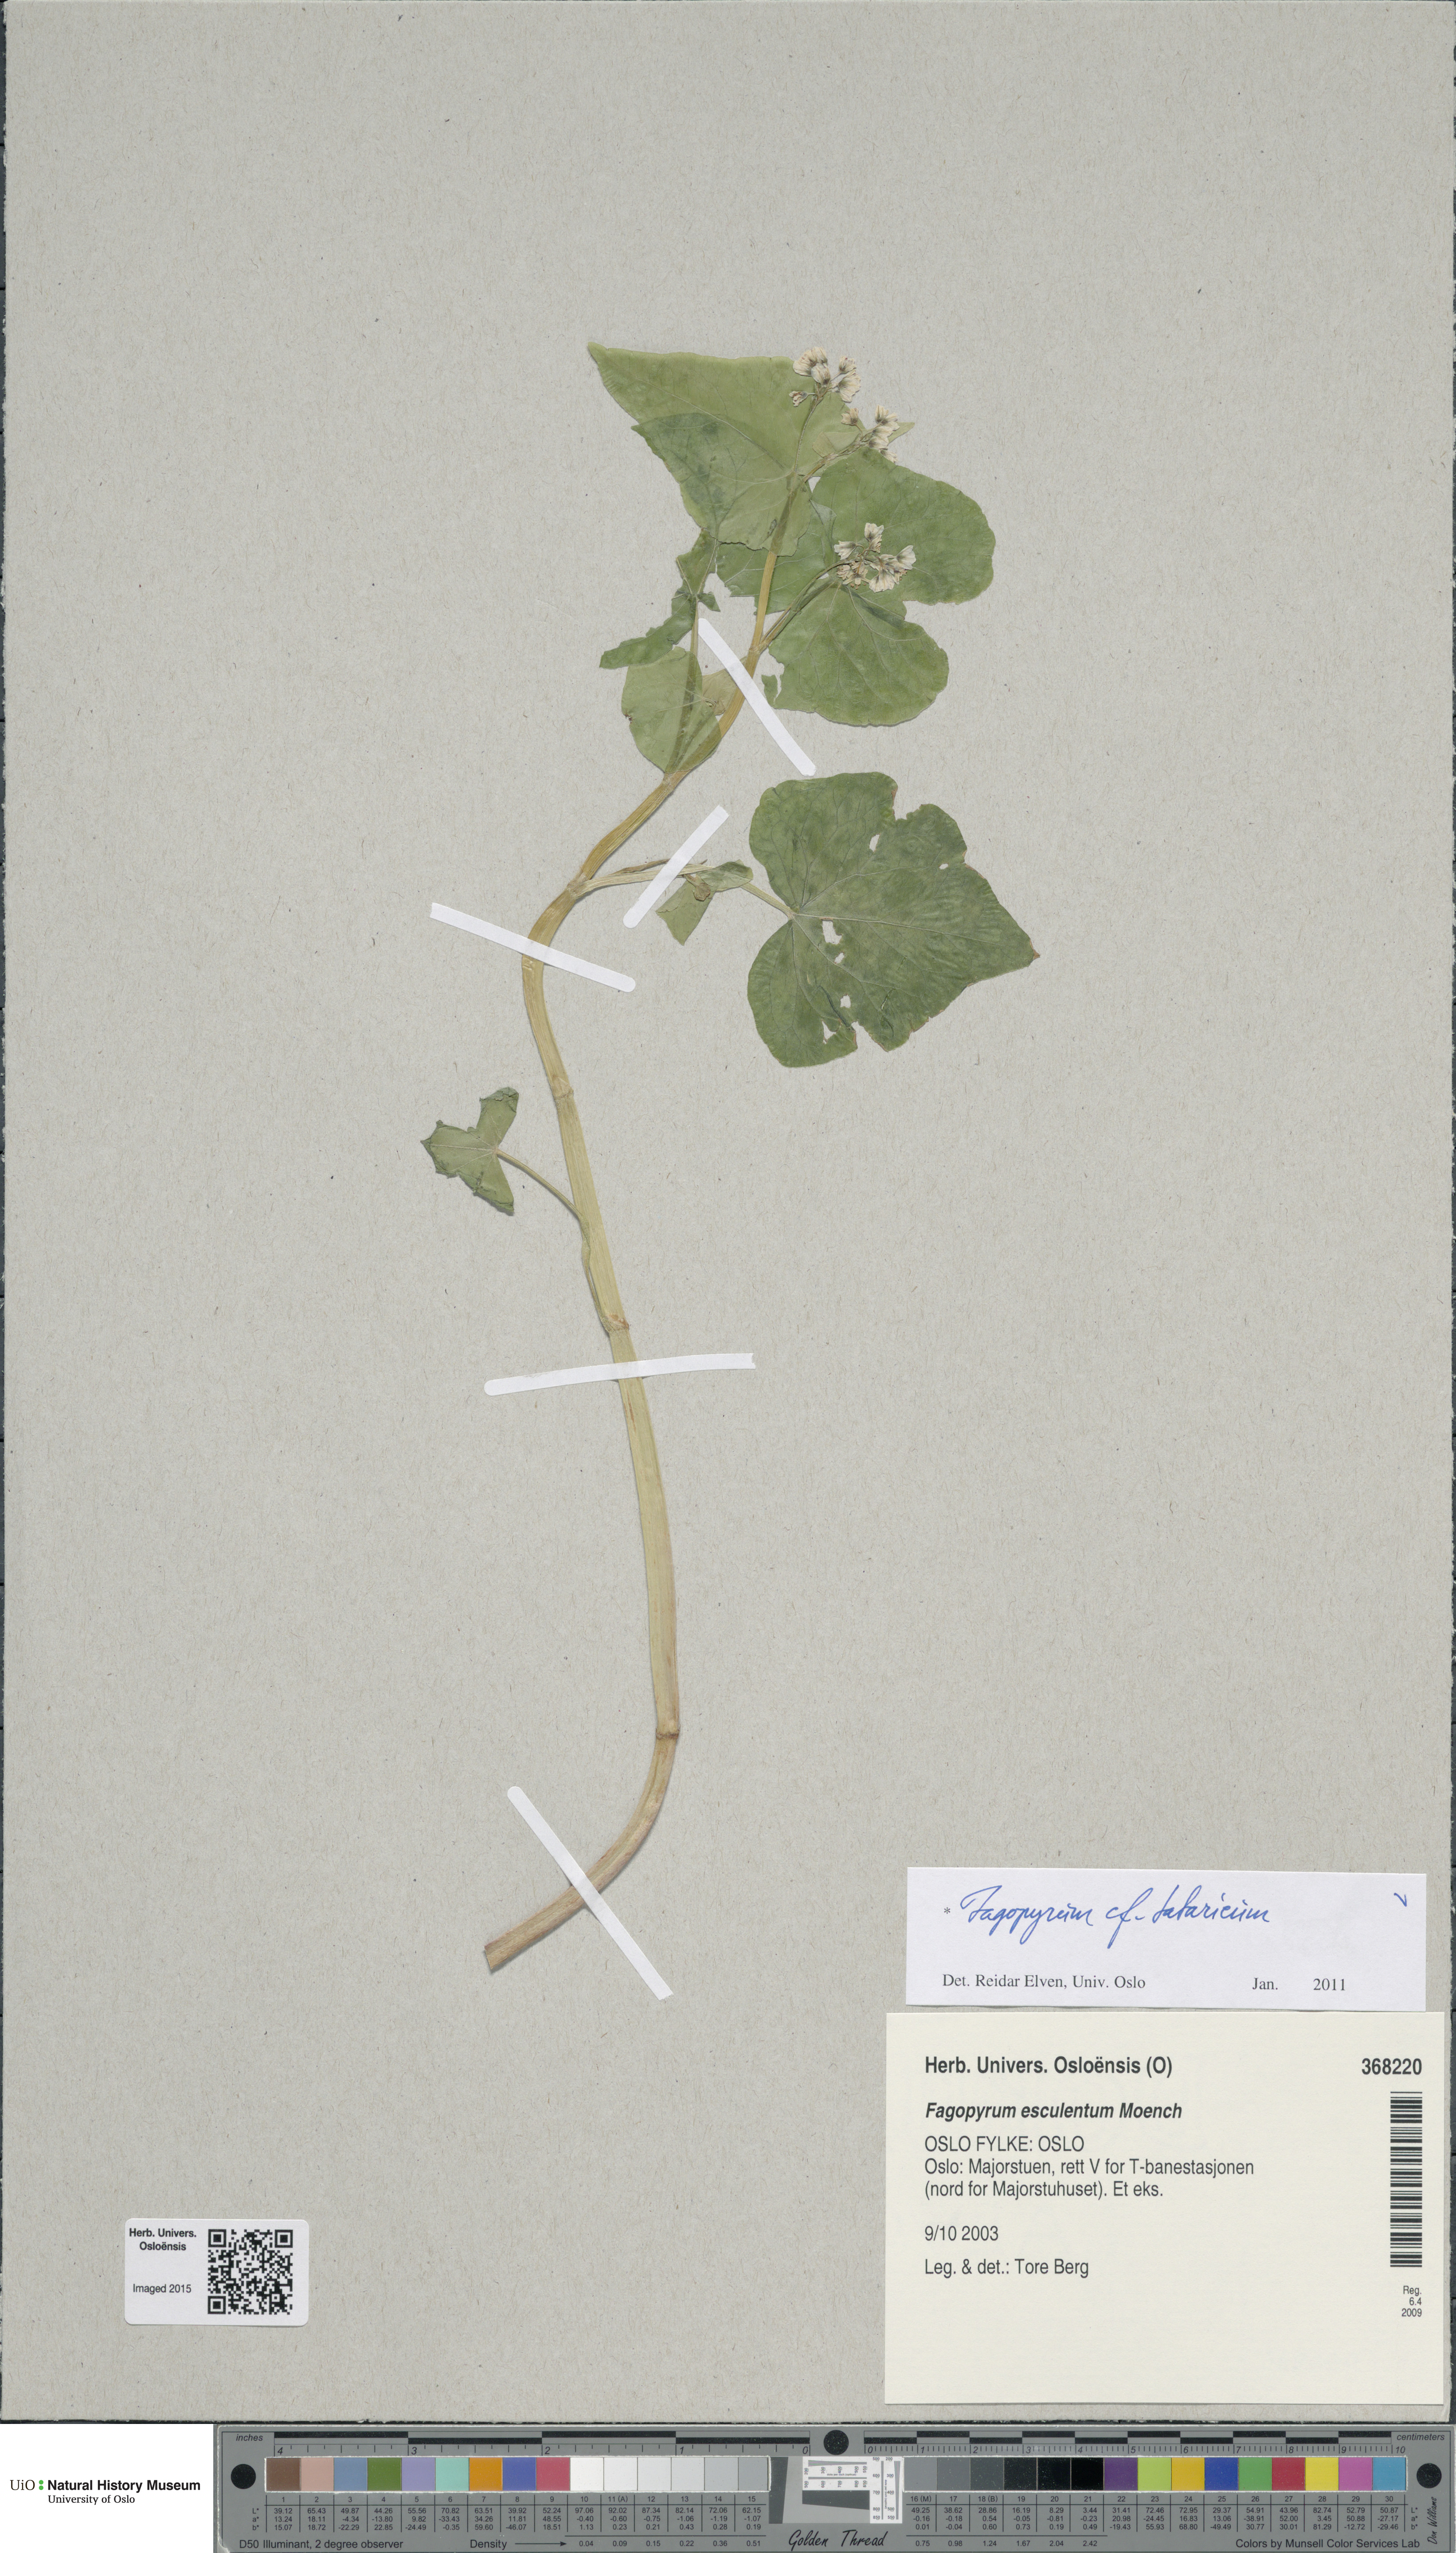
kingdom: Plantae
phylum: Tracheophyta
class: Magnoliopsida
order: Caryophyllales
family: Polygonaceae
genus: Fagopyrum
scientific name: Fagopyrum tataricum
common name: Green buckwheat
